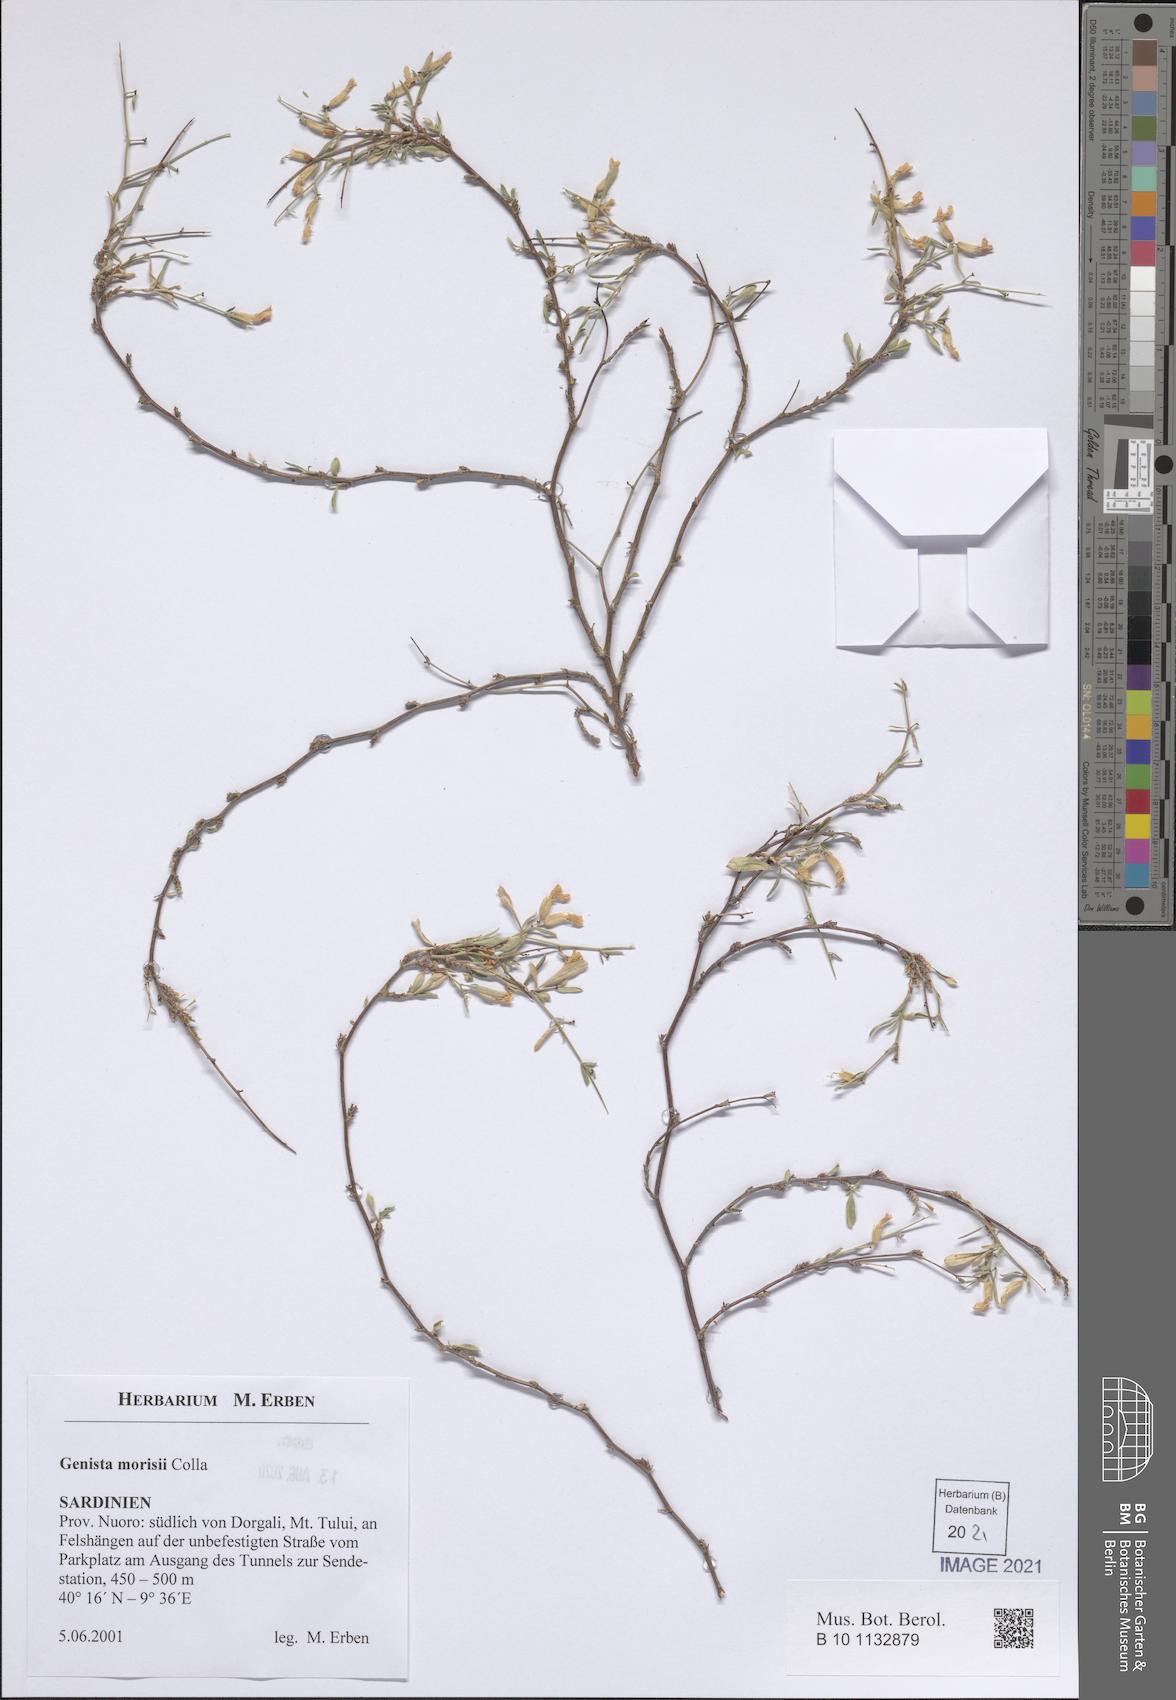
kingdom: Plantae
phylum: Tracheophyta
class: Magnoliopsida
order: Fabales
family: Fabaceae
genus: Genista
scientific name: Genista morisii
